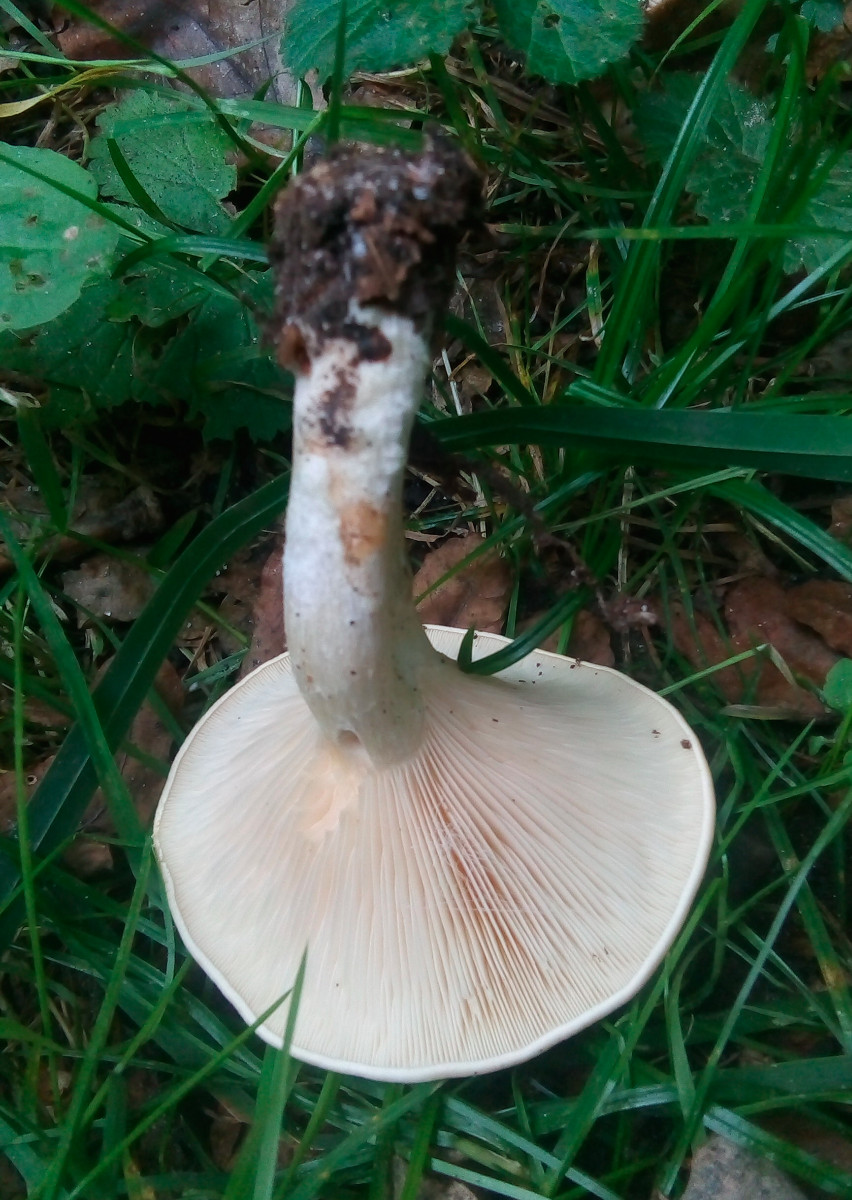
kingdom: Fungi
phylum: Basidiomycota
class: Agaricomycetes
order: Agaricales
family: Tricholomataceae
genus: Paralepista
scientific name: Paralepista flaccida
